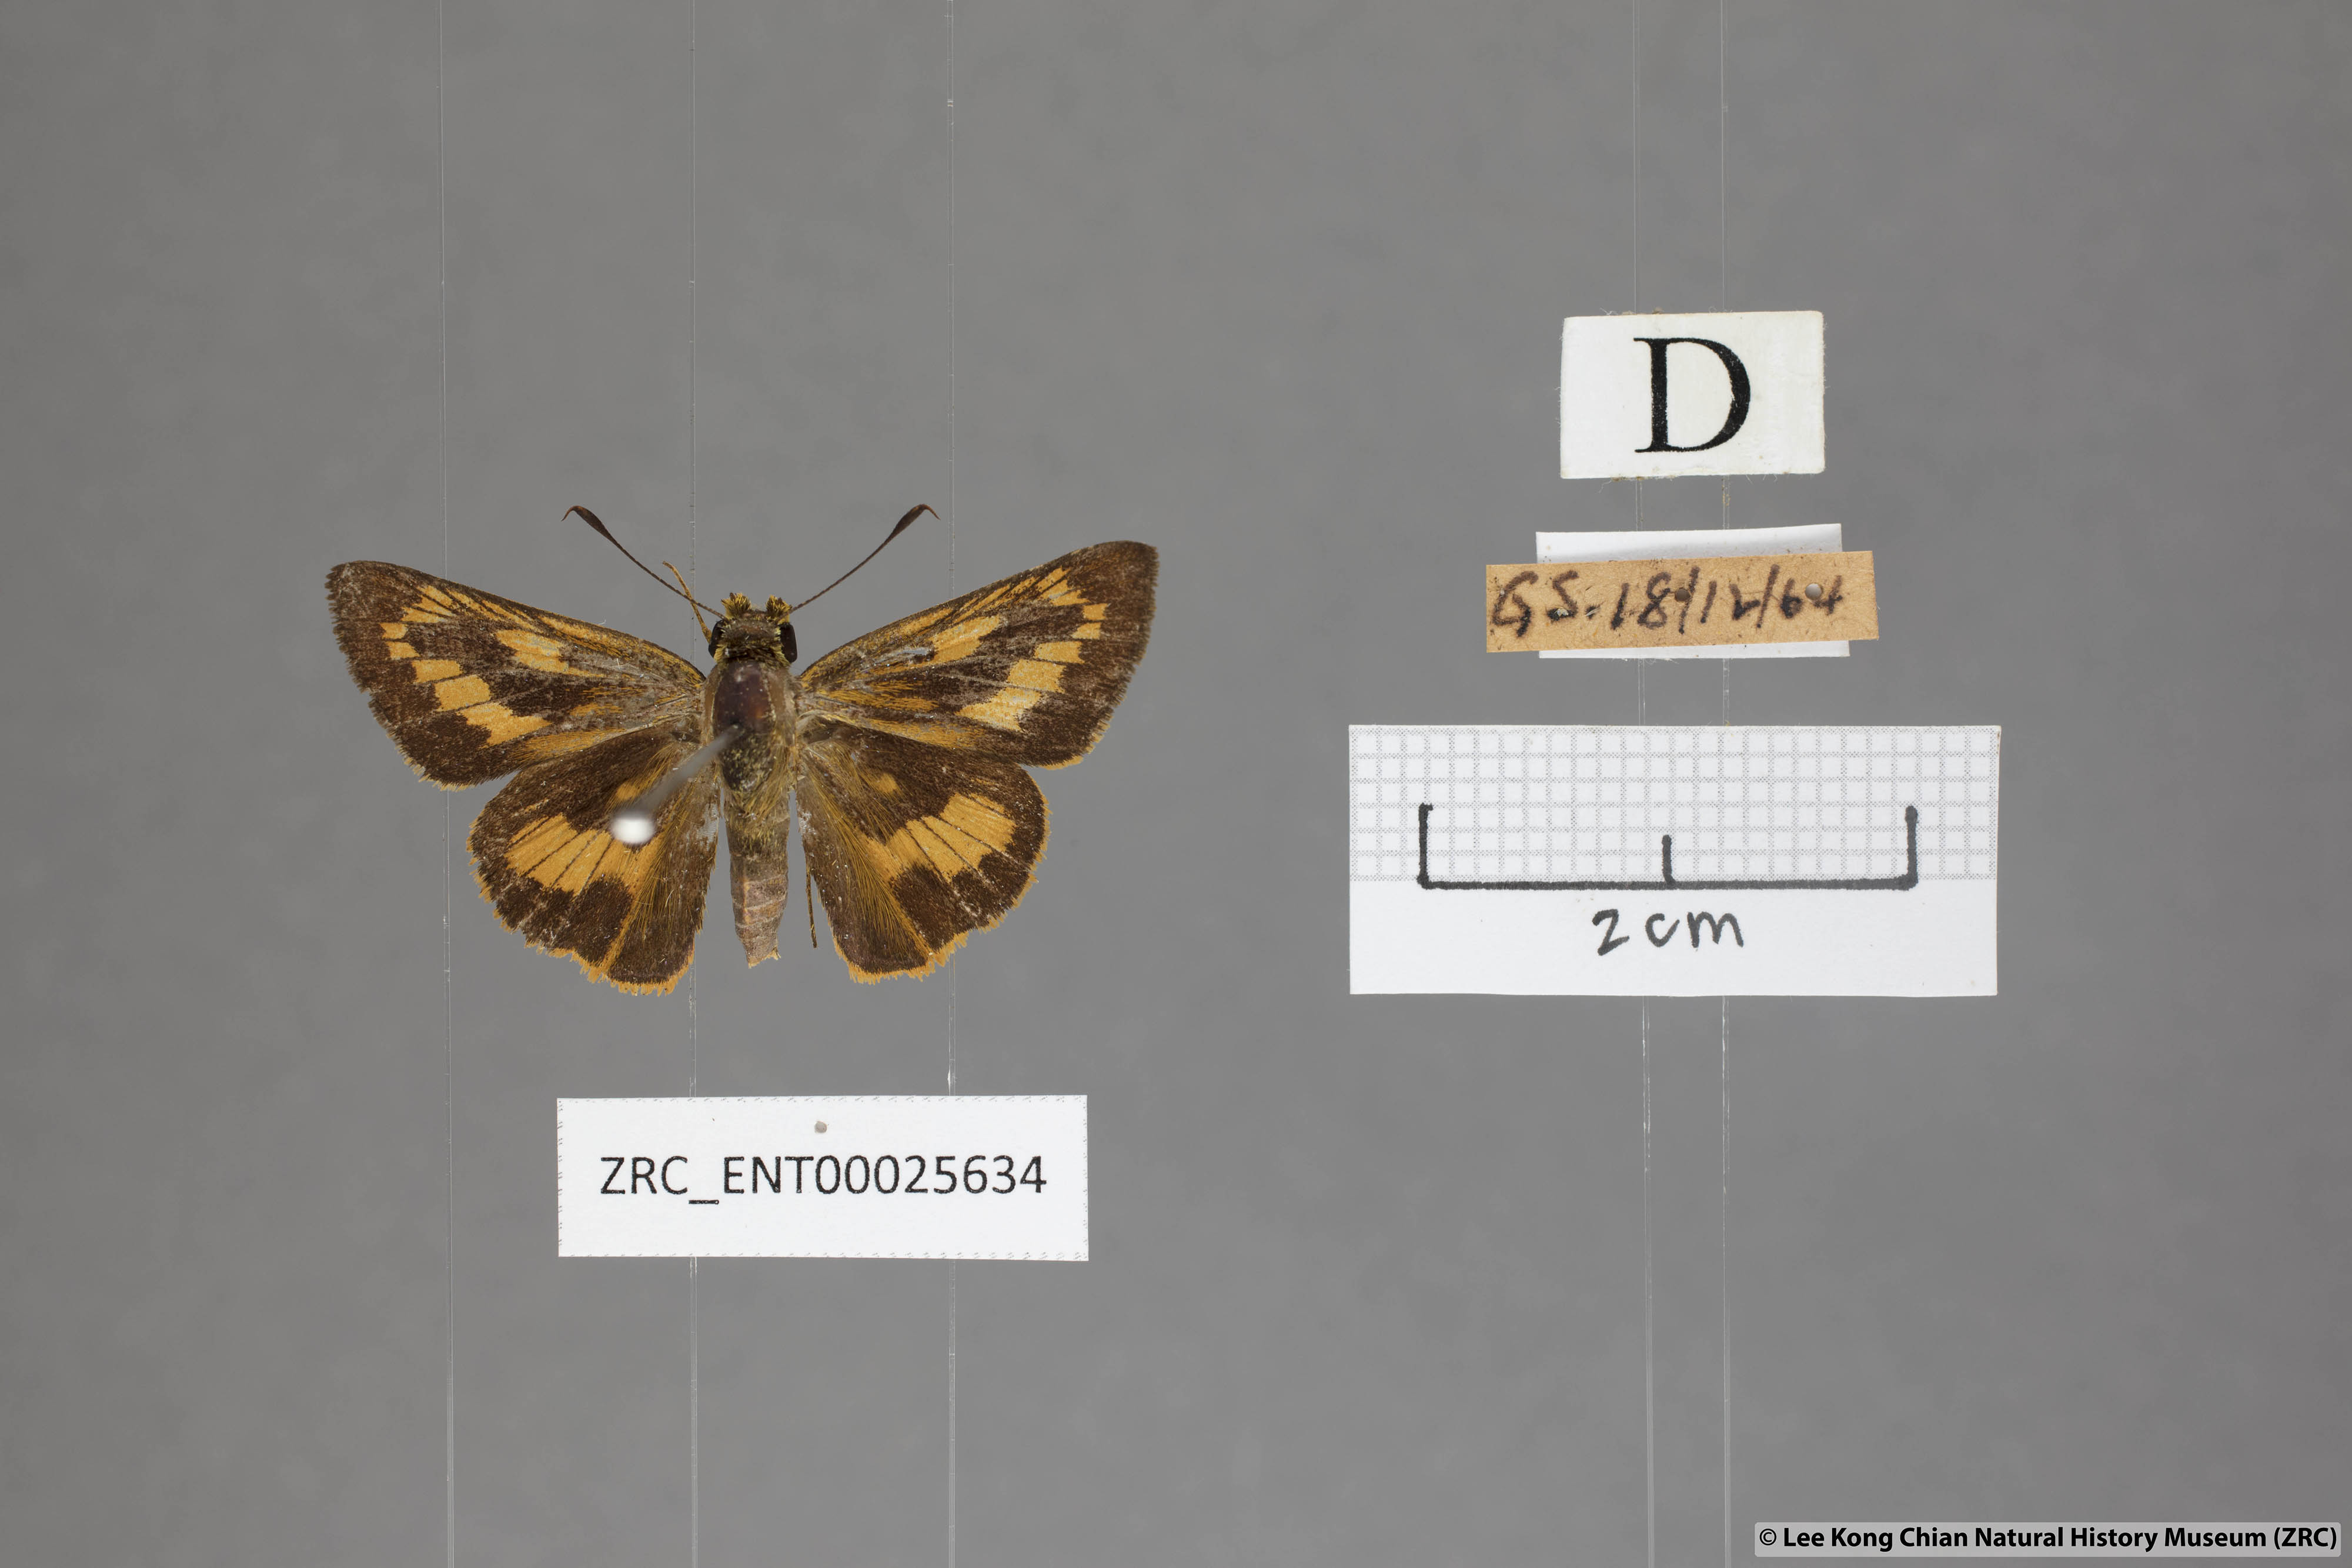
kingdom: Animalia
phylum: Arthropoda
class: Insecta
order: Lepidoptera
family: Hesperiidae
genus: Telicota
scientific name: Telicota augias
